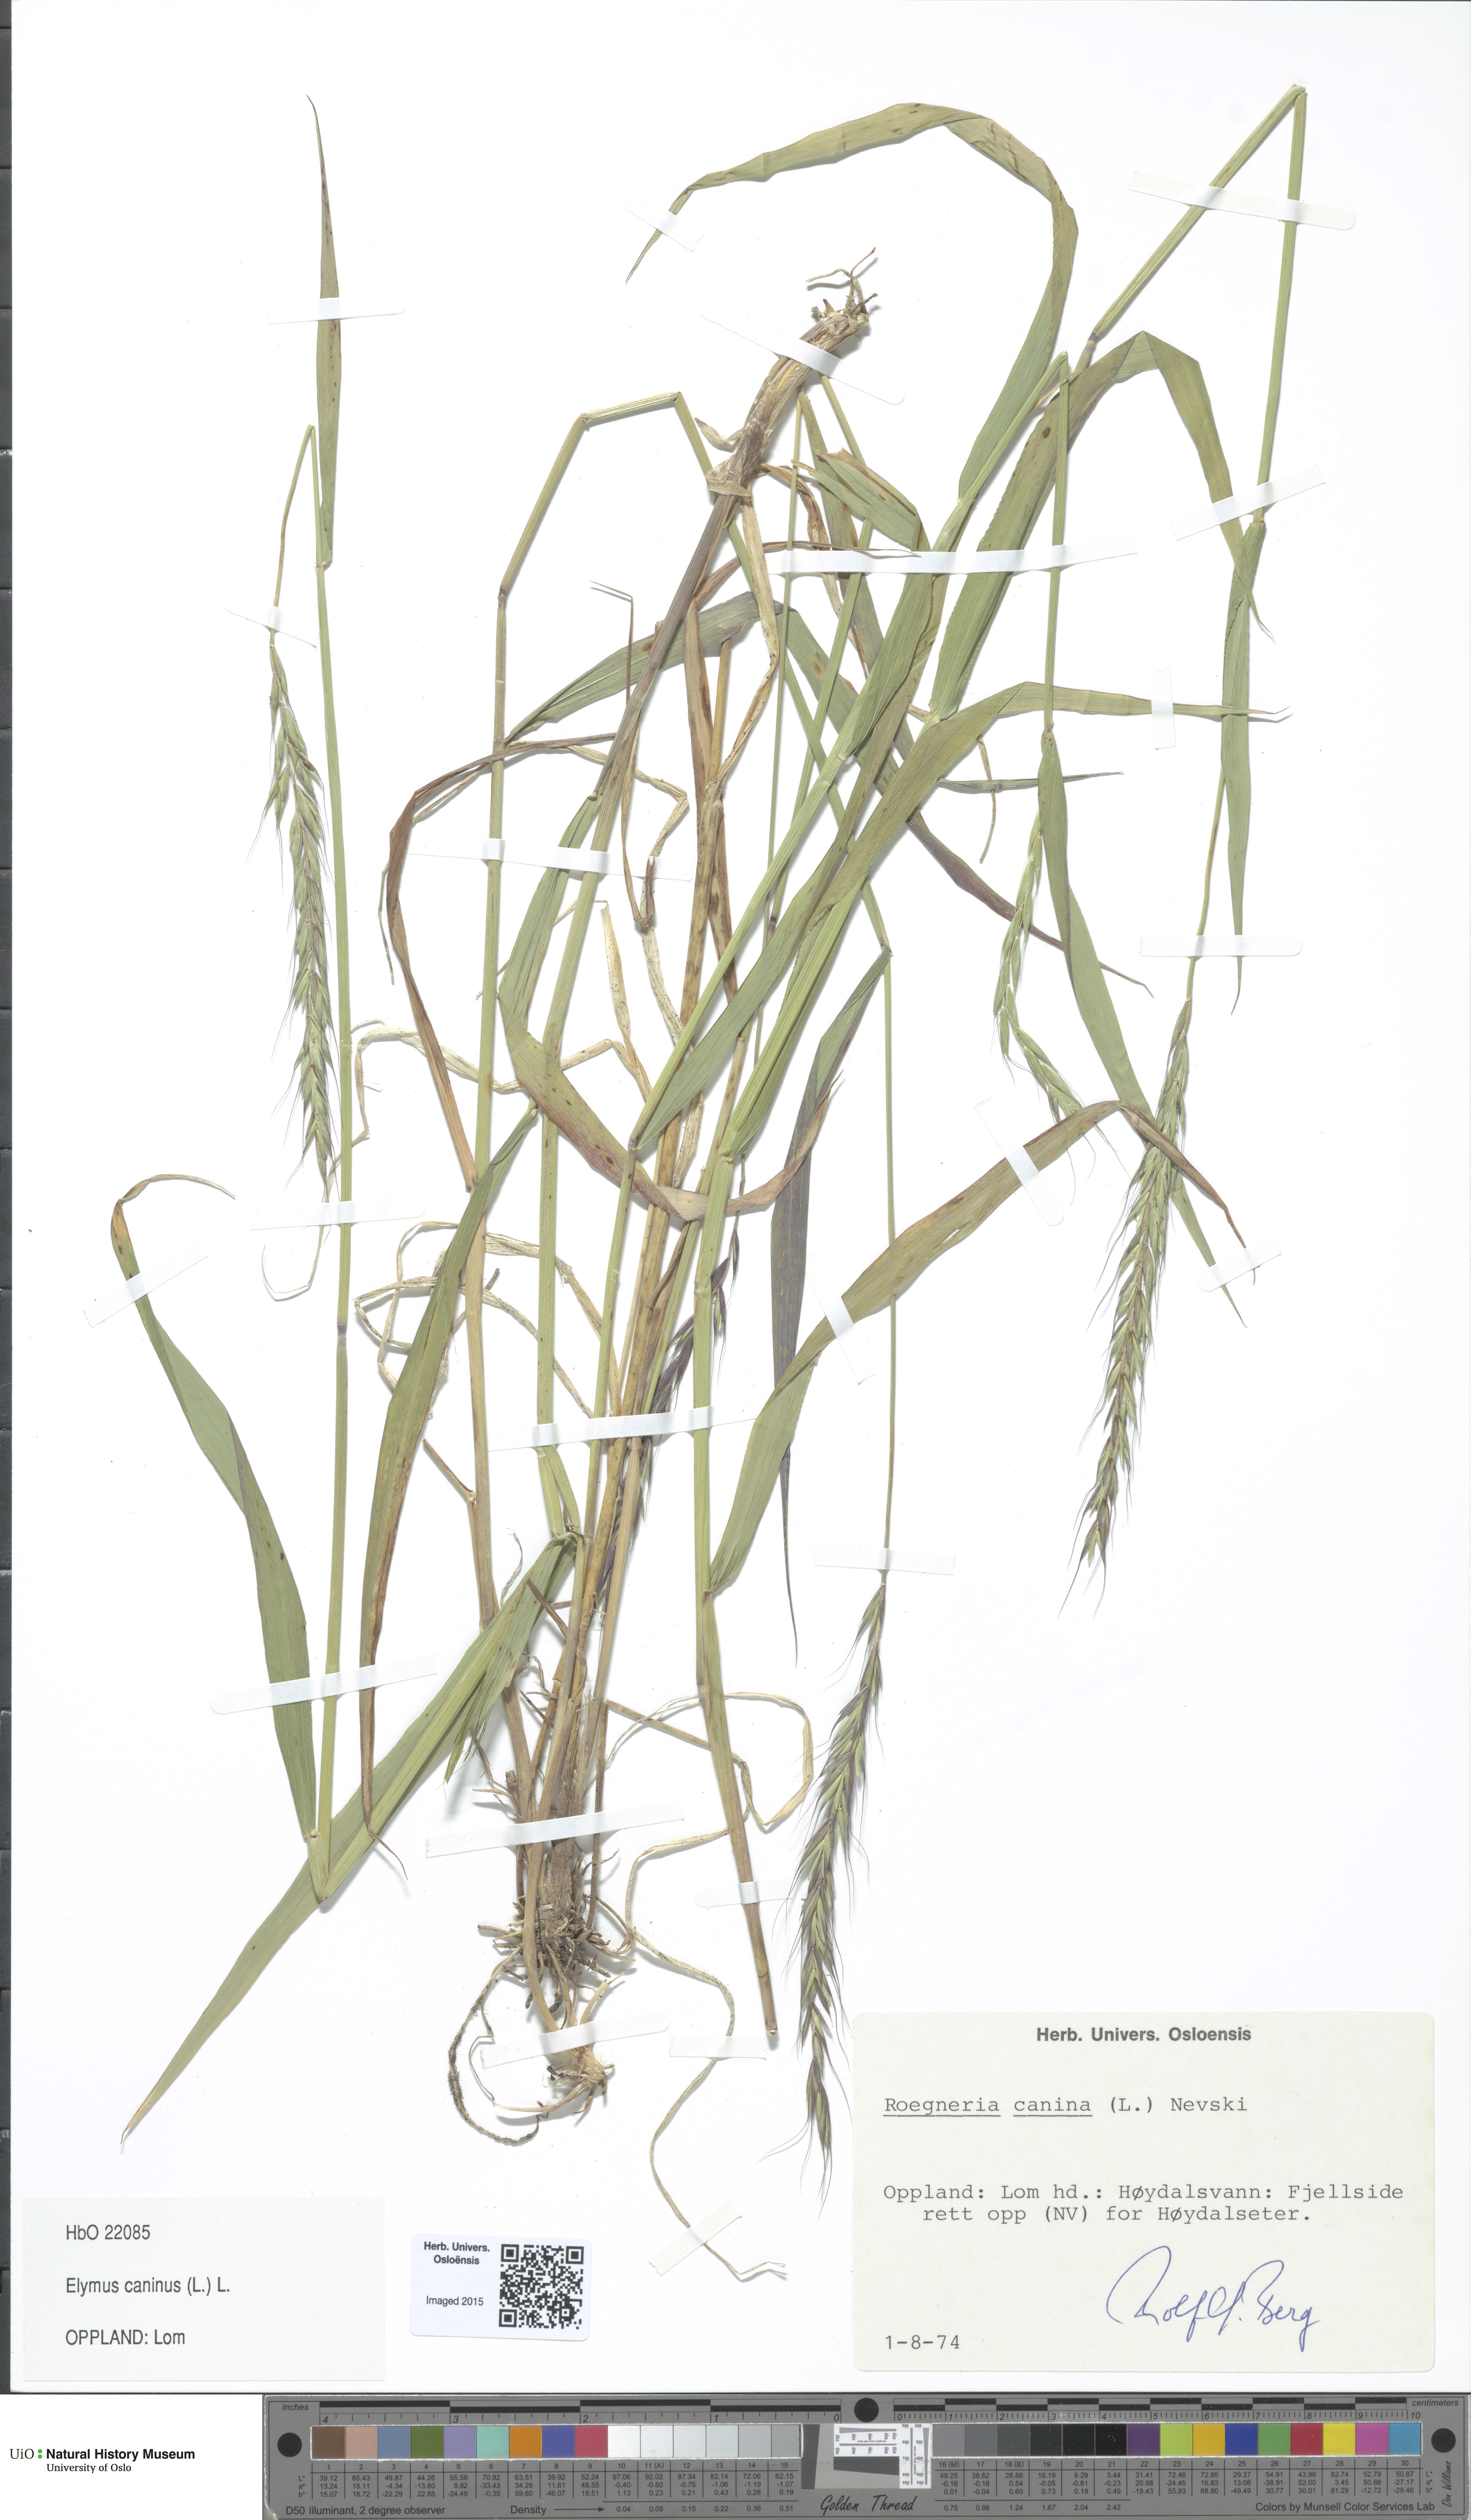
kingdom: Plantae
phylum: Tracheophyta
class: Liliopsida
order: Poales
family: Poaceae
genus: Elymus
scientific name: Elymus caninus
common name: Bearded couch
